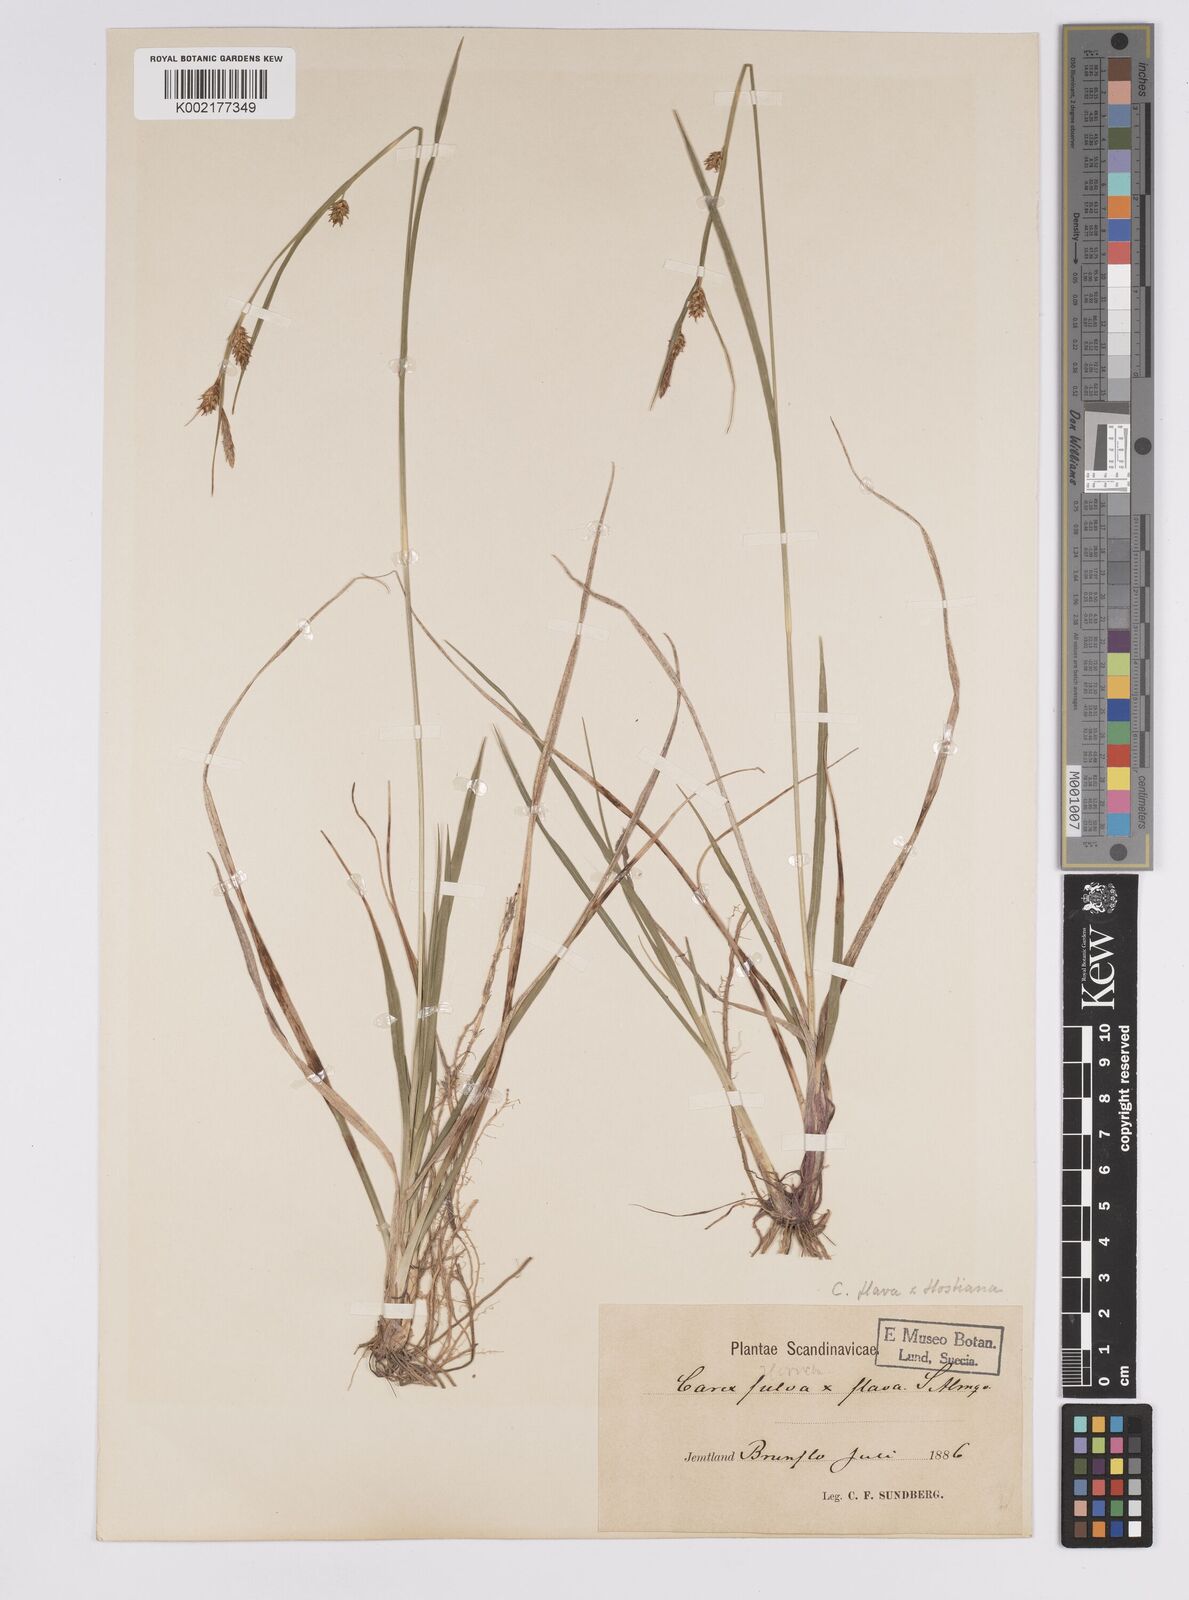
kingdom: Plantae
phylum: Tracheophyta
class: Liliopsida
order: Poales
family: Cyperaceae
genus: Carex
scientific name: Carex hostiana
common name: Tawny sedge
